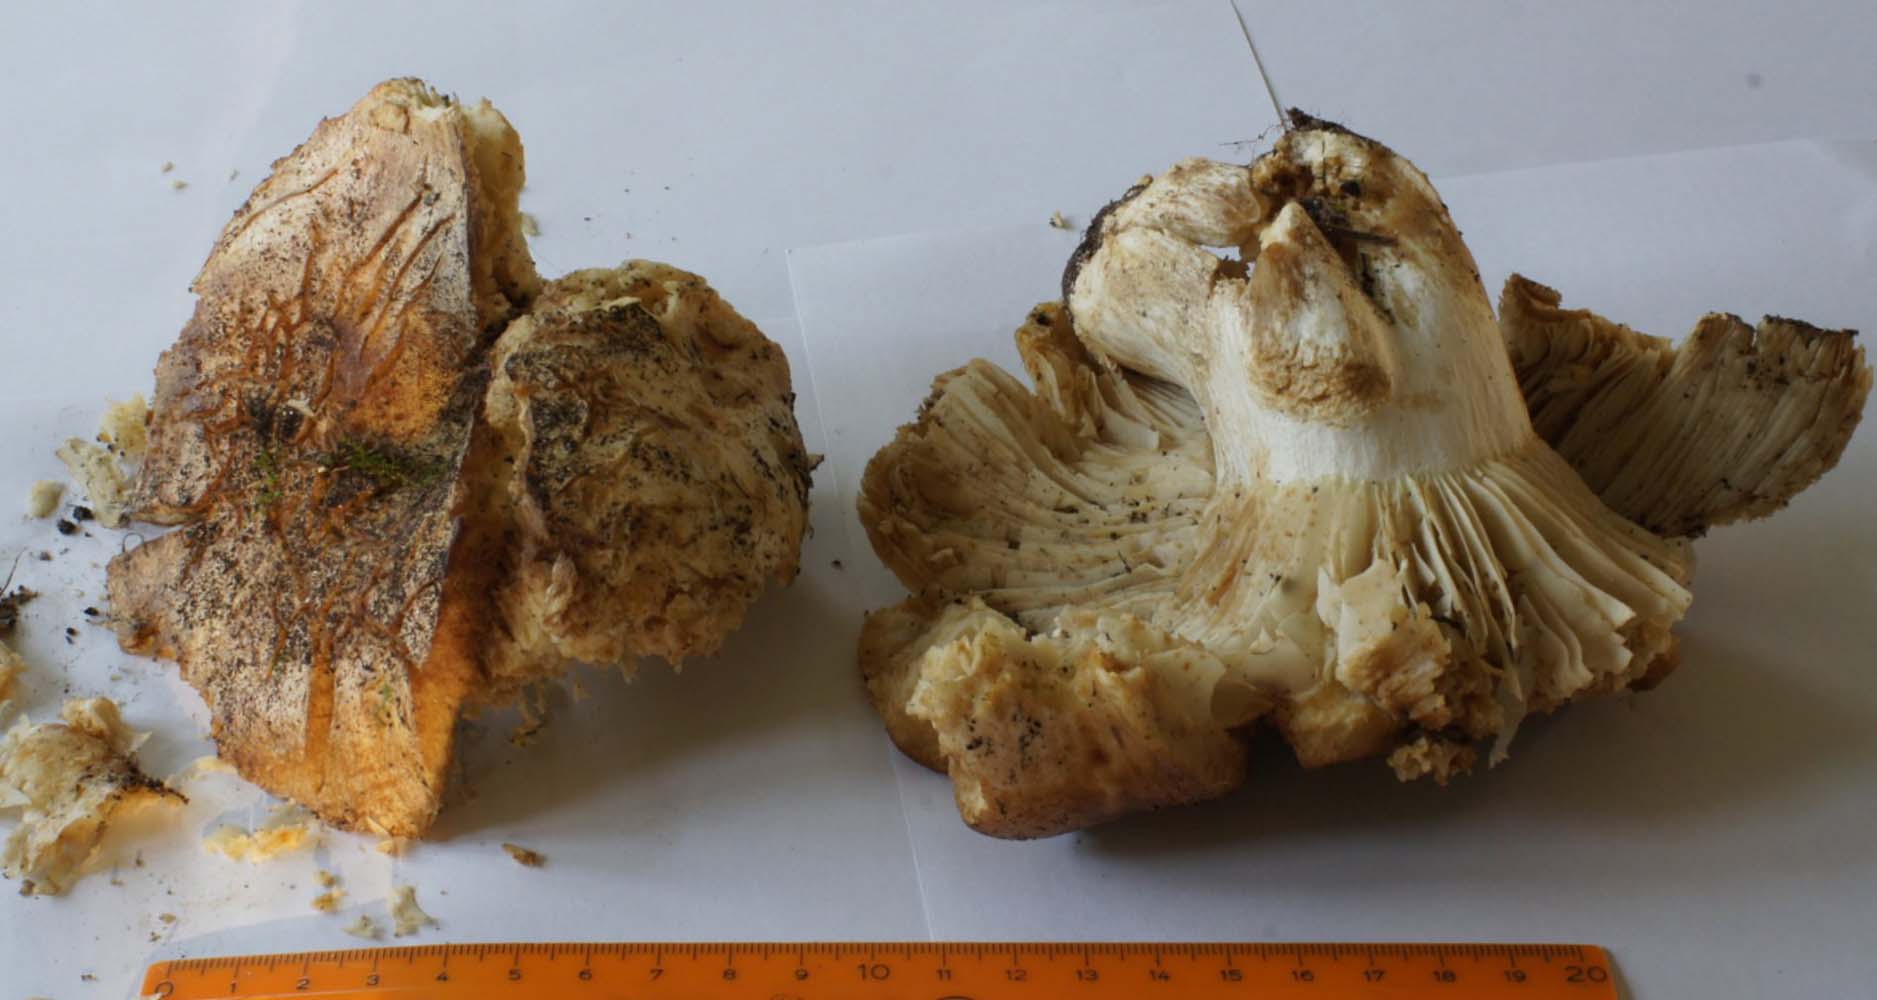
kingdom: Fungi
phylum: Basidiomycota
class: Agaricomycetes
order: Russulales
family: Russulaceae
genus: Russula
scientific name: Russula delica
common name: almindelig tragt-skørhat
